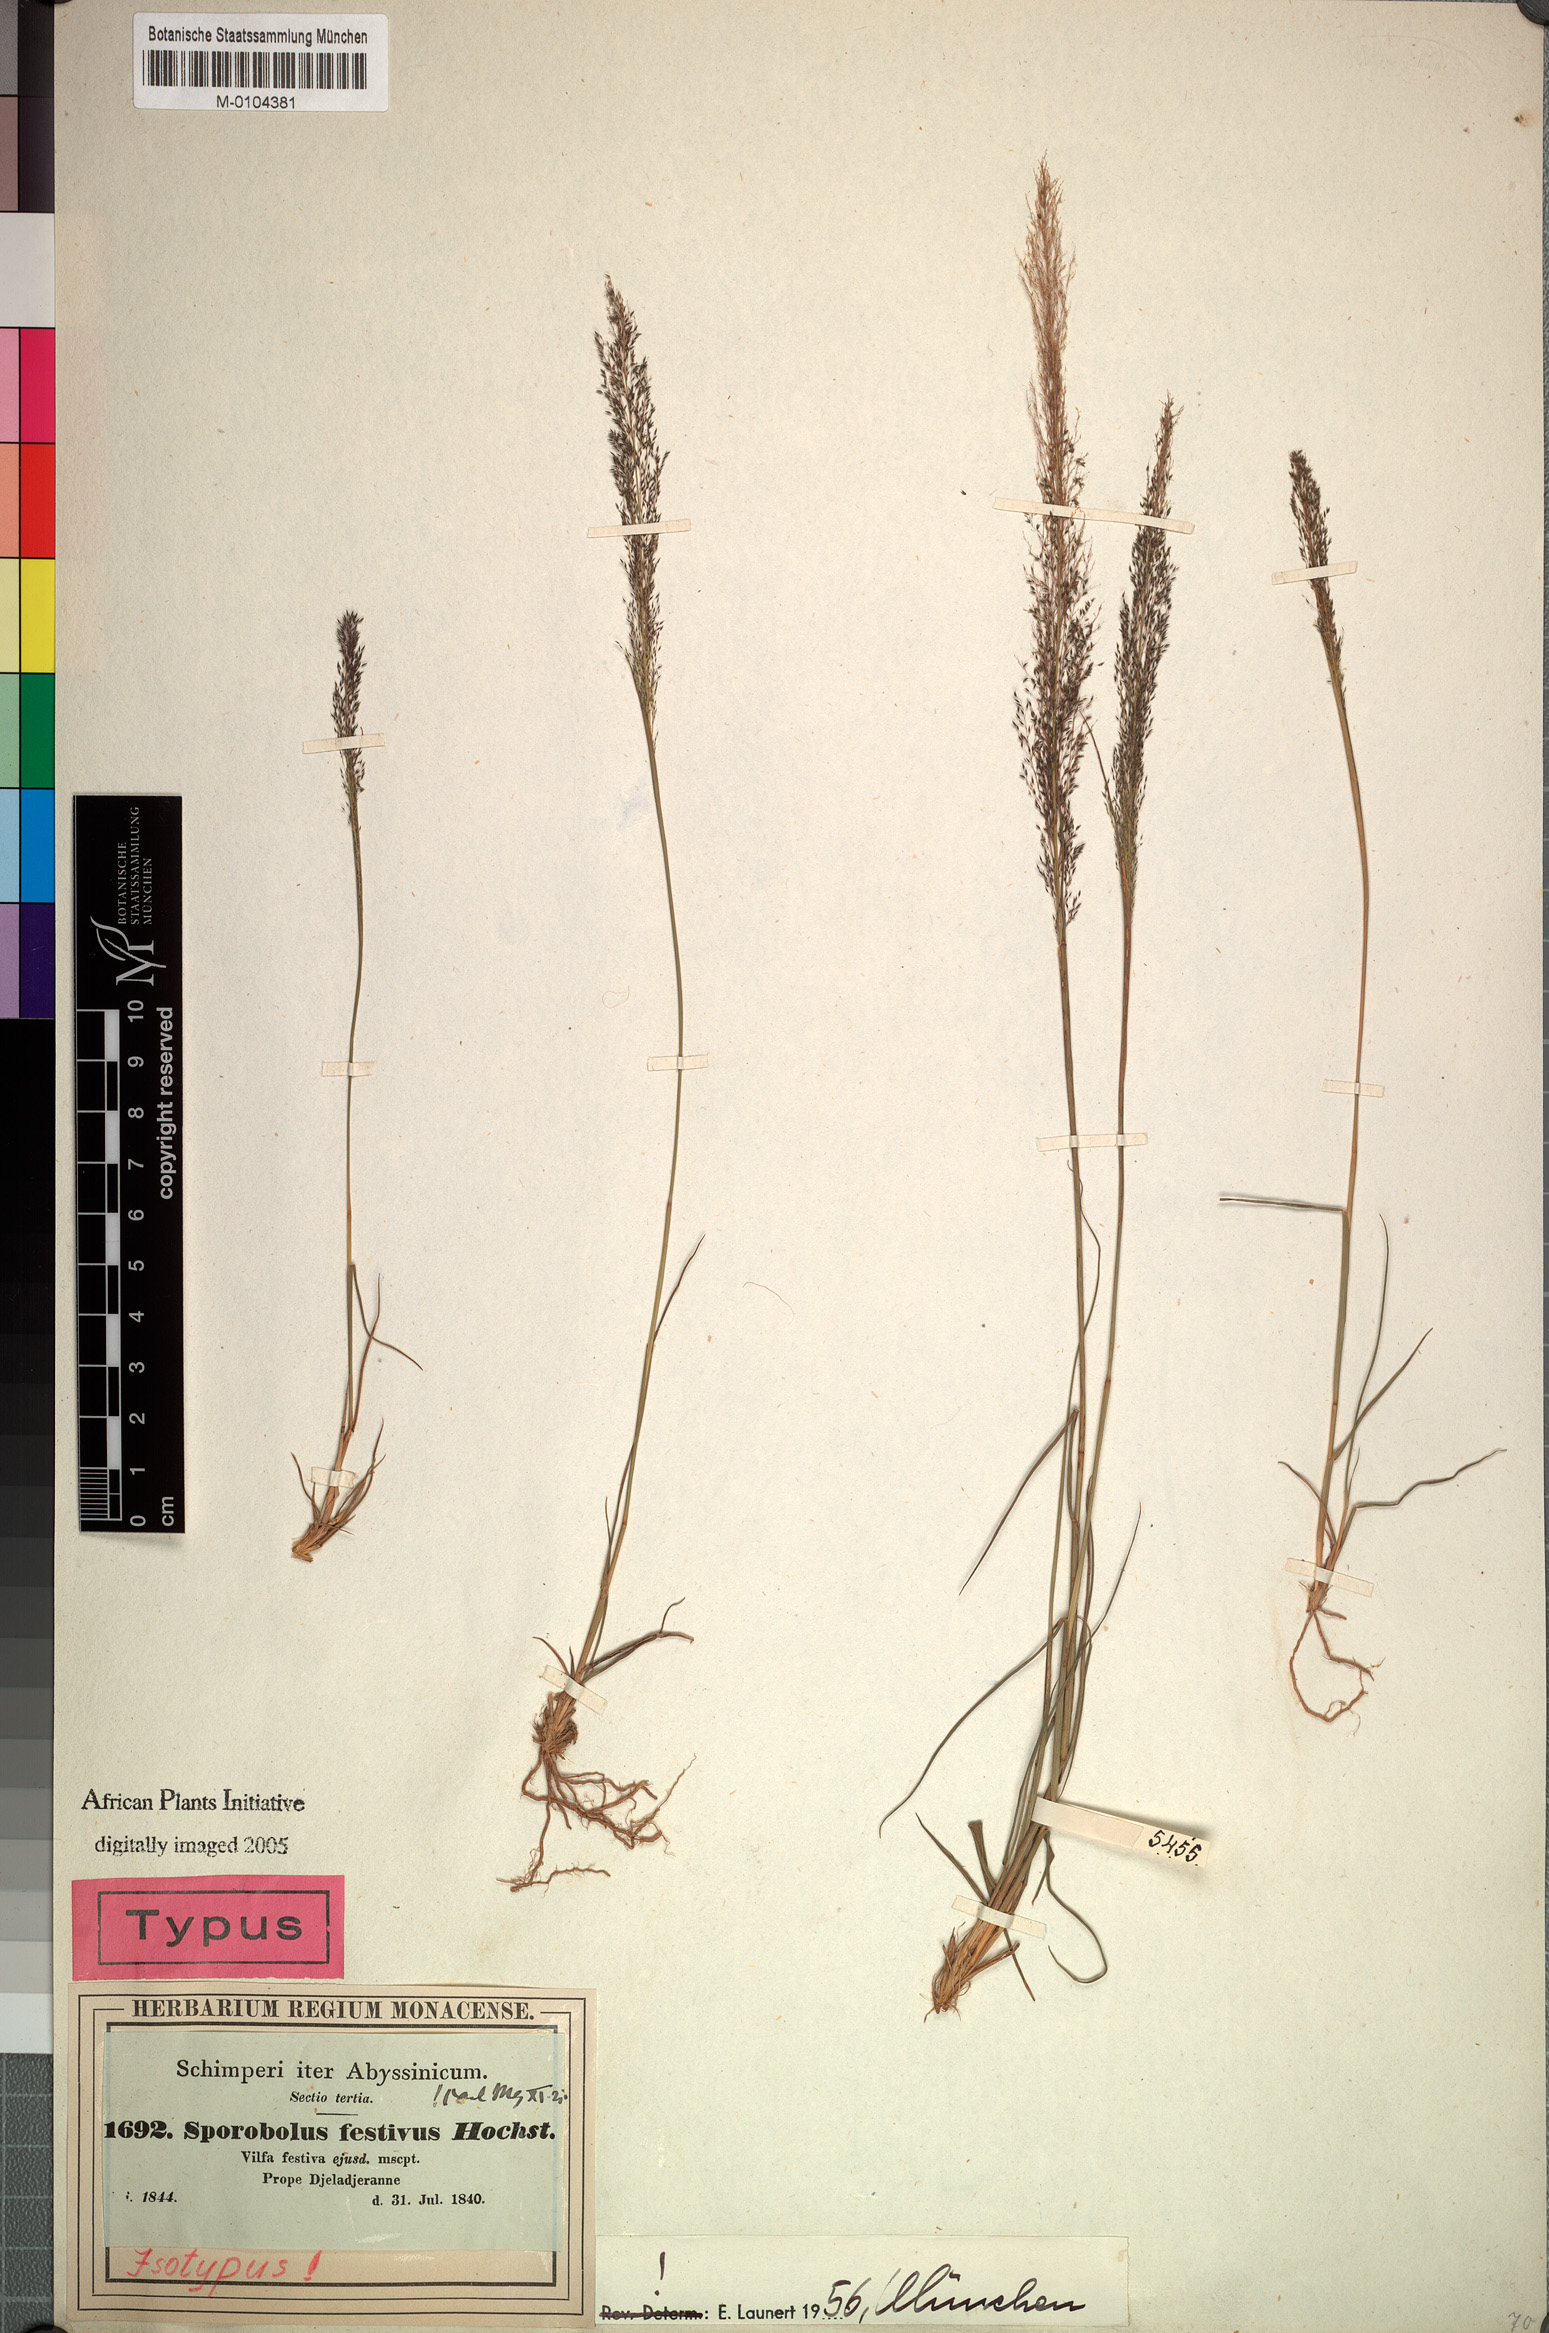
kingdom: Plantae
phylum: Tracheophyta
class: Liliopsida
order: Poales
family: Poaceae
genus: Sporobolus
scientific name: Sporobolus festivus
